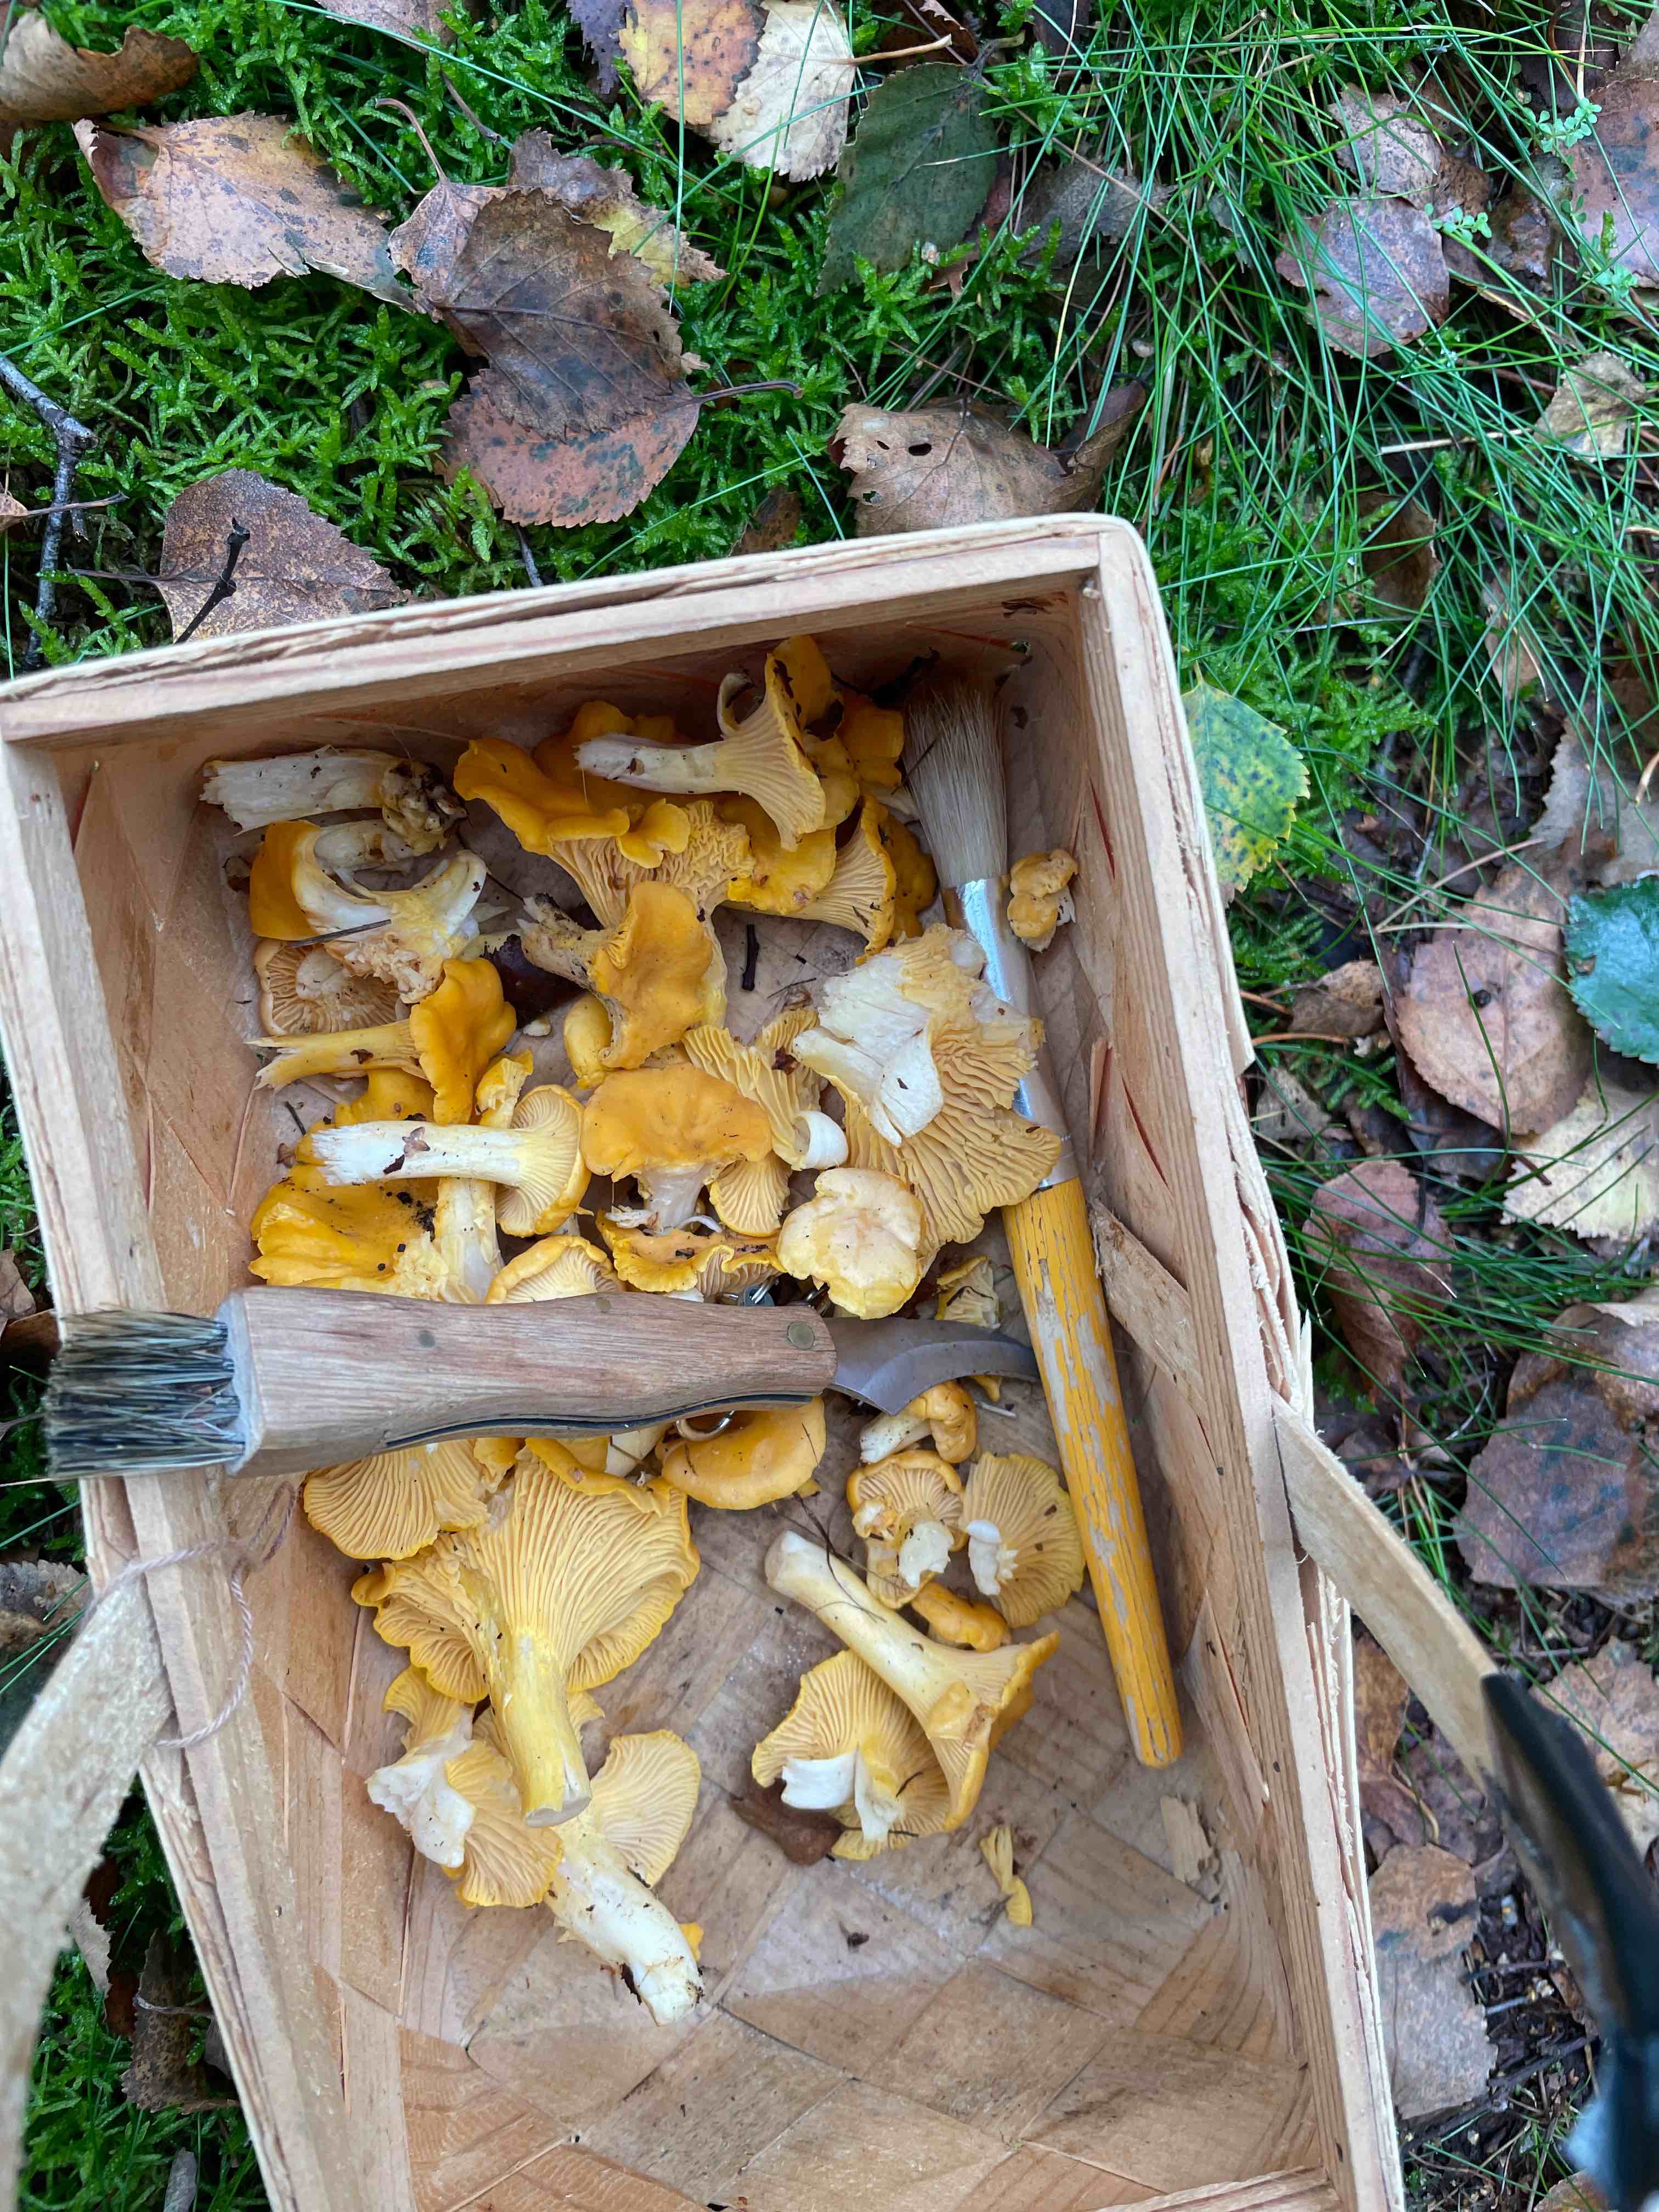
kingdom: Fungi
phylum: Basidiomycota
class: Agaricomycetes
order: Cantharellales
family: Hydnaceae
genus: Cantharellus
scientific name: Cantharellus cibarius
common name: almindelig kantarel
